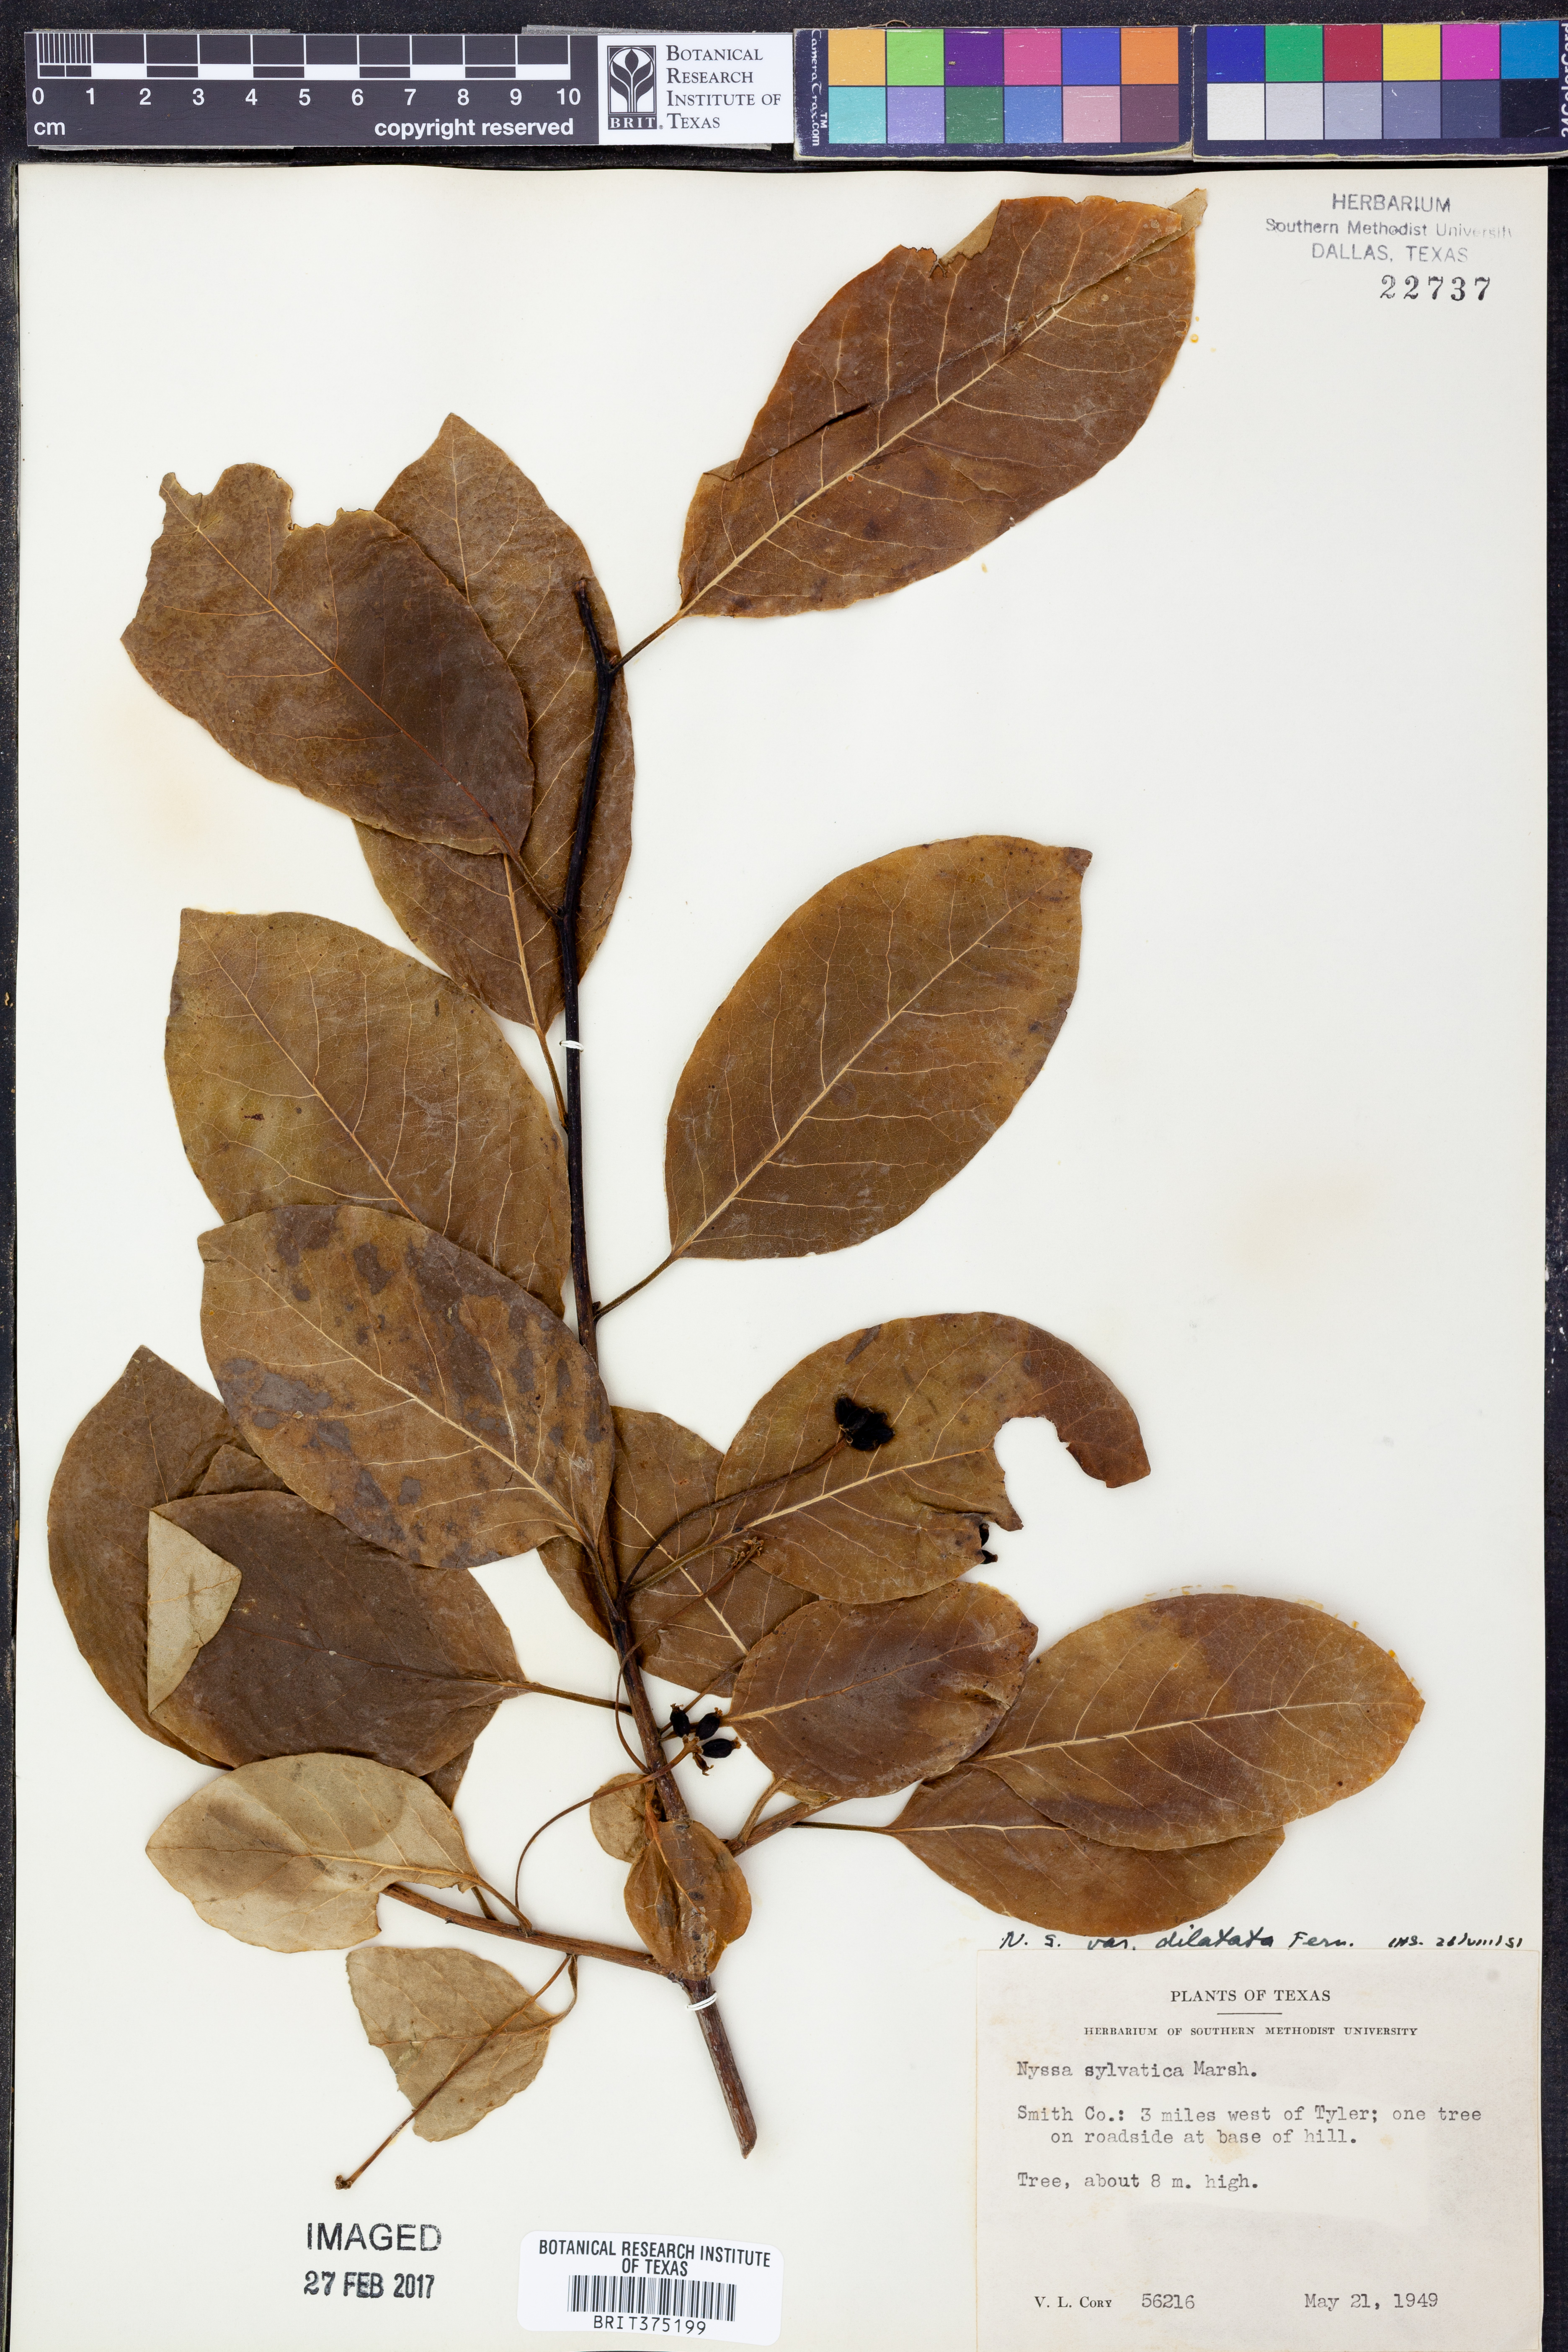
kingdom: Plantae
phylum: Tracheophyta
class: Magnoliopsida
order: Cornales
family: Nyssaceae
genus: Nyssa
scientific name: Nyssa sylvatica
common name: Black tupelo
